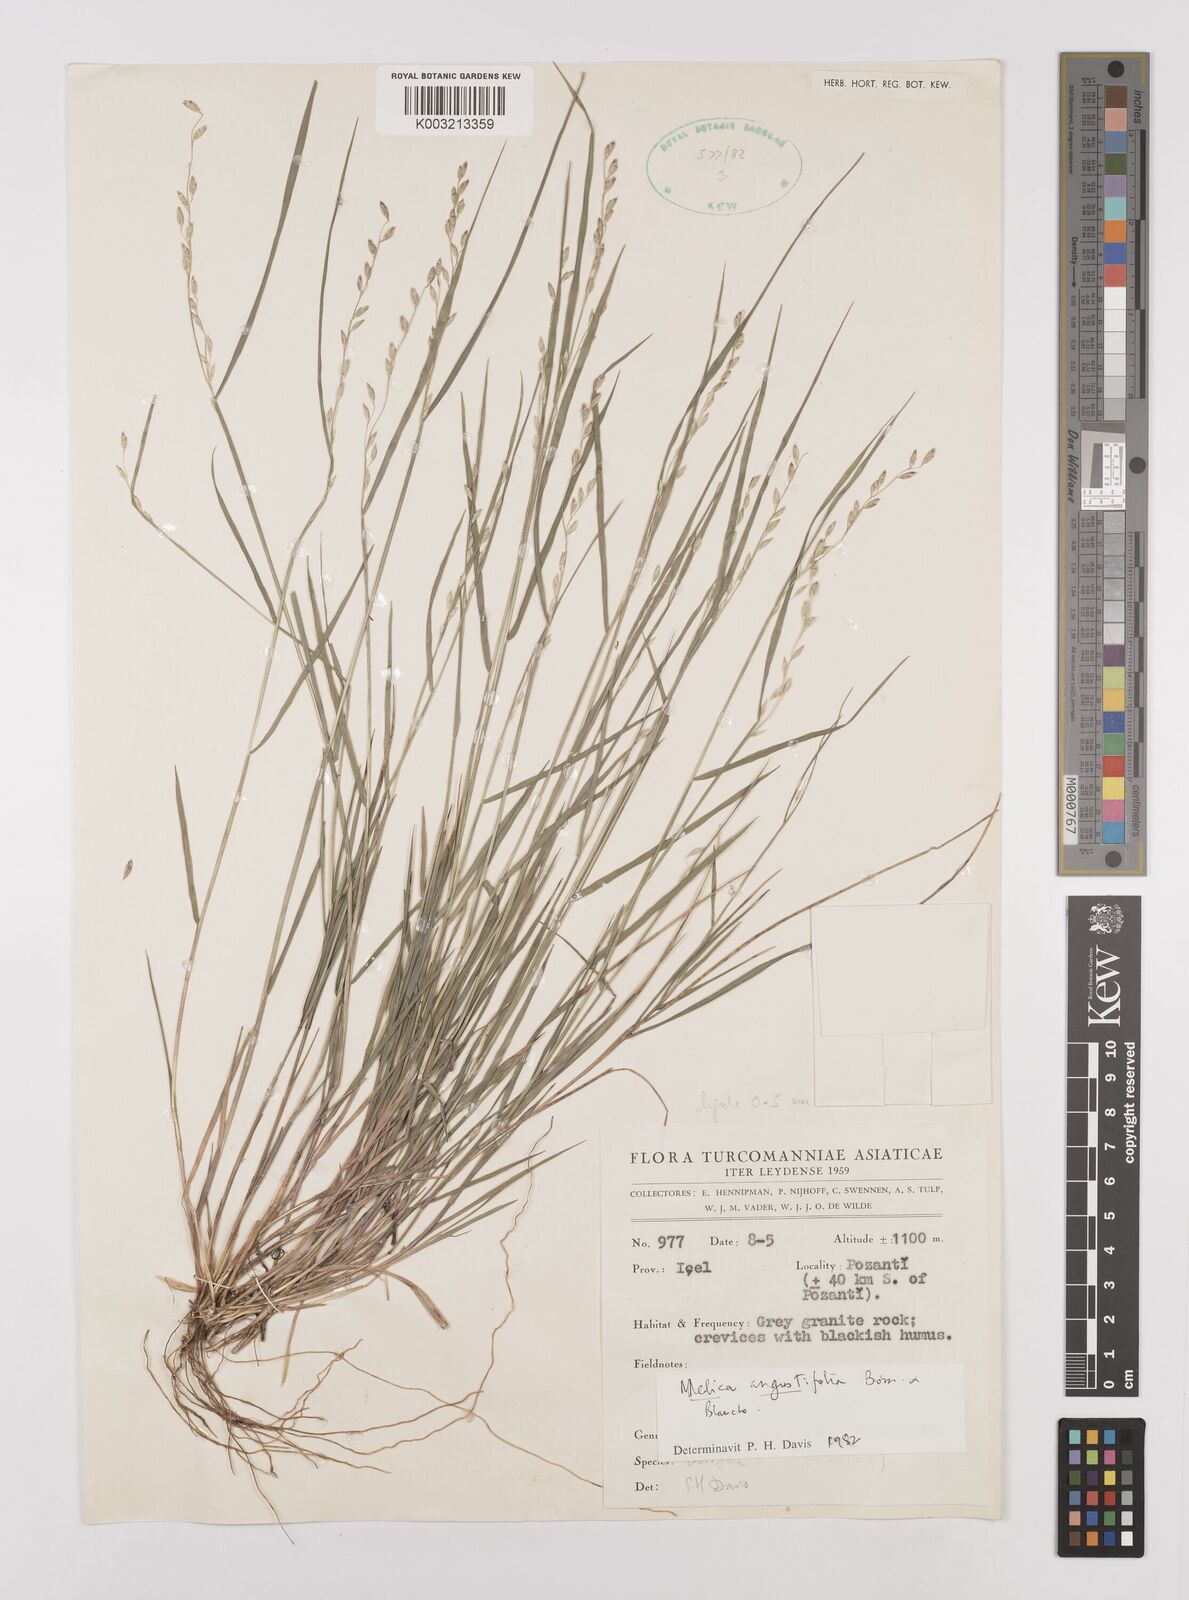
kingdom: Plantae
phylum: Tracheophyta
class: Liliopsida
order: Poales
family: Poaceae
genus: Melica
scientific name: Melica
